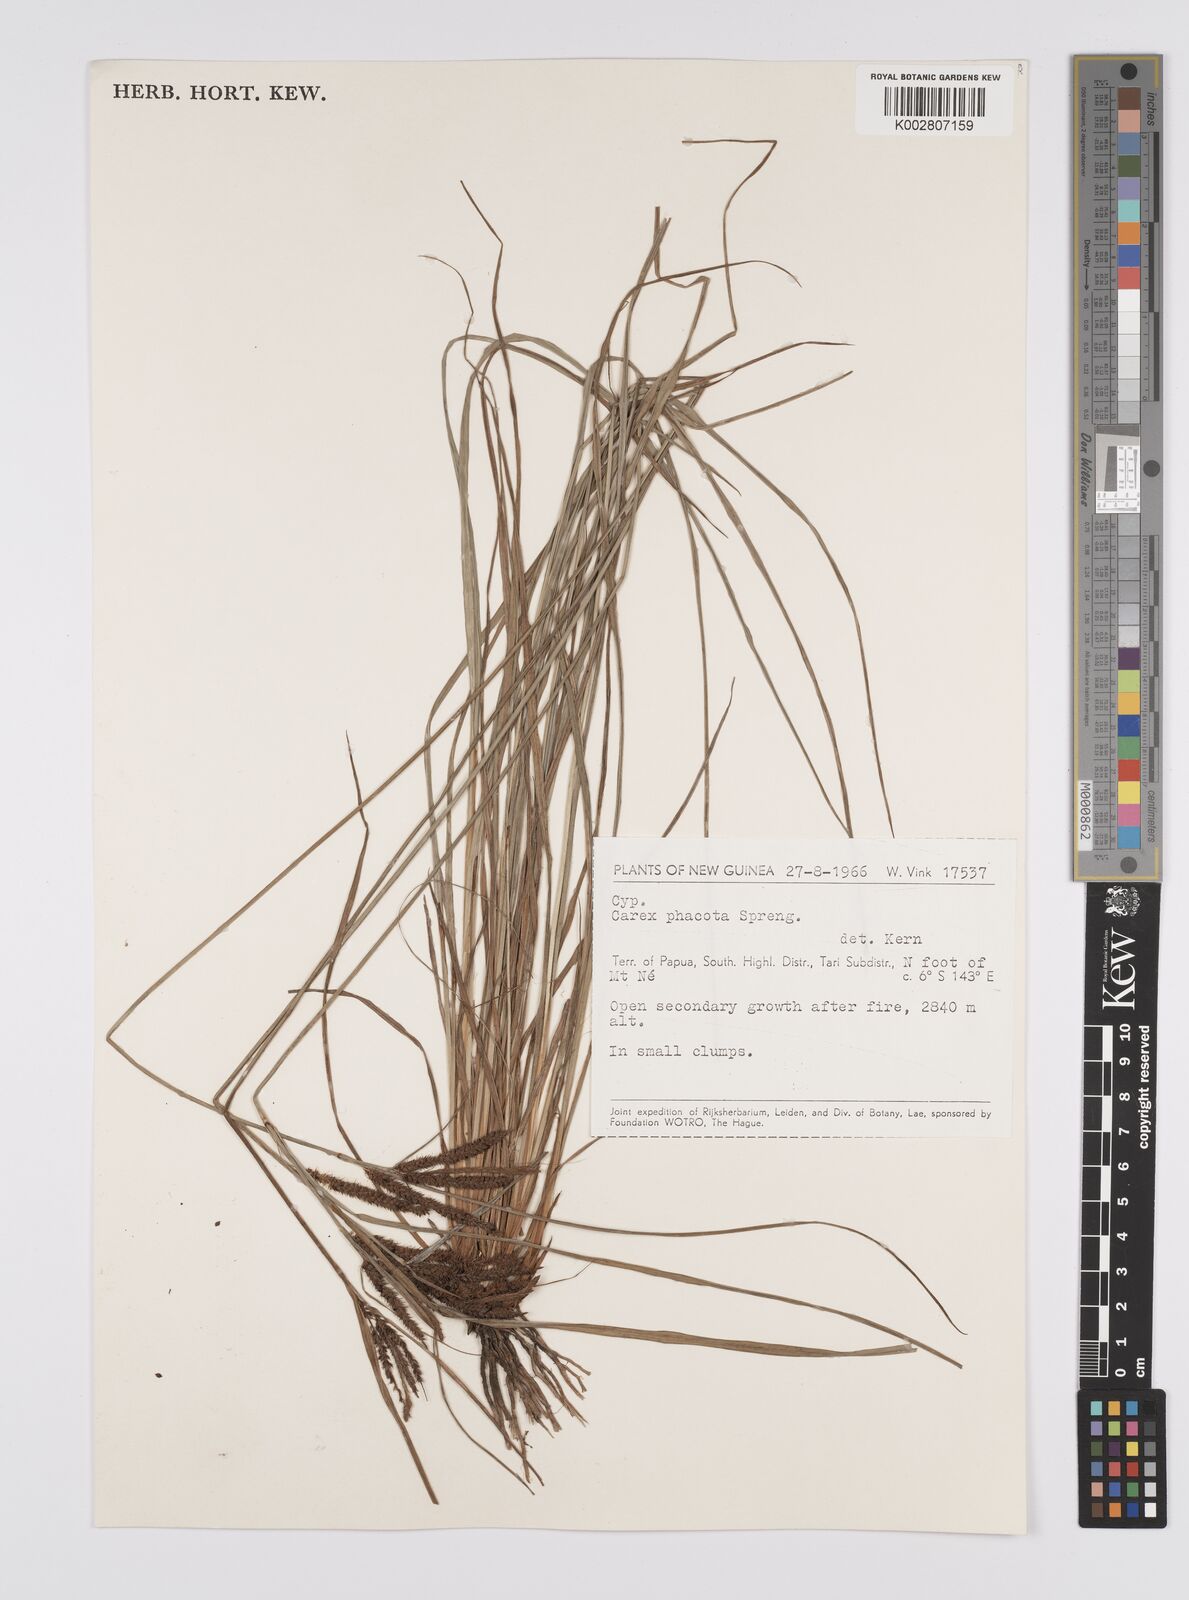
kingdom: Plantae
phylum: Tracheophyta
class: Liliopsida
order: Poales
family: Cyperaceae
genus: Carex
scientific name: Carex phacota
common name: Lakeshore sedge
